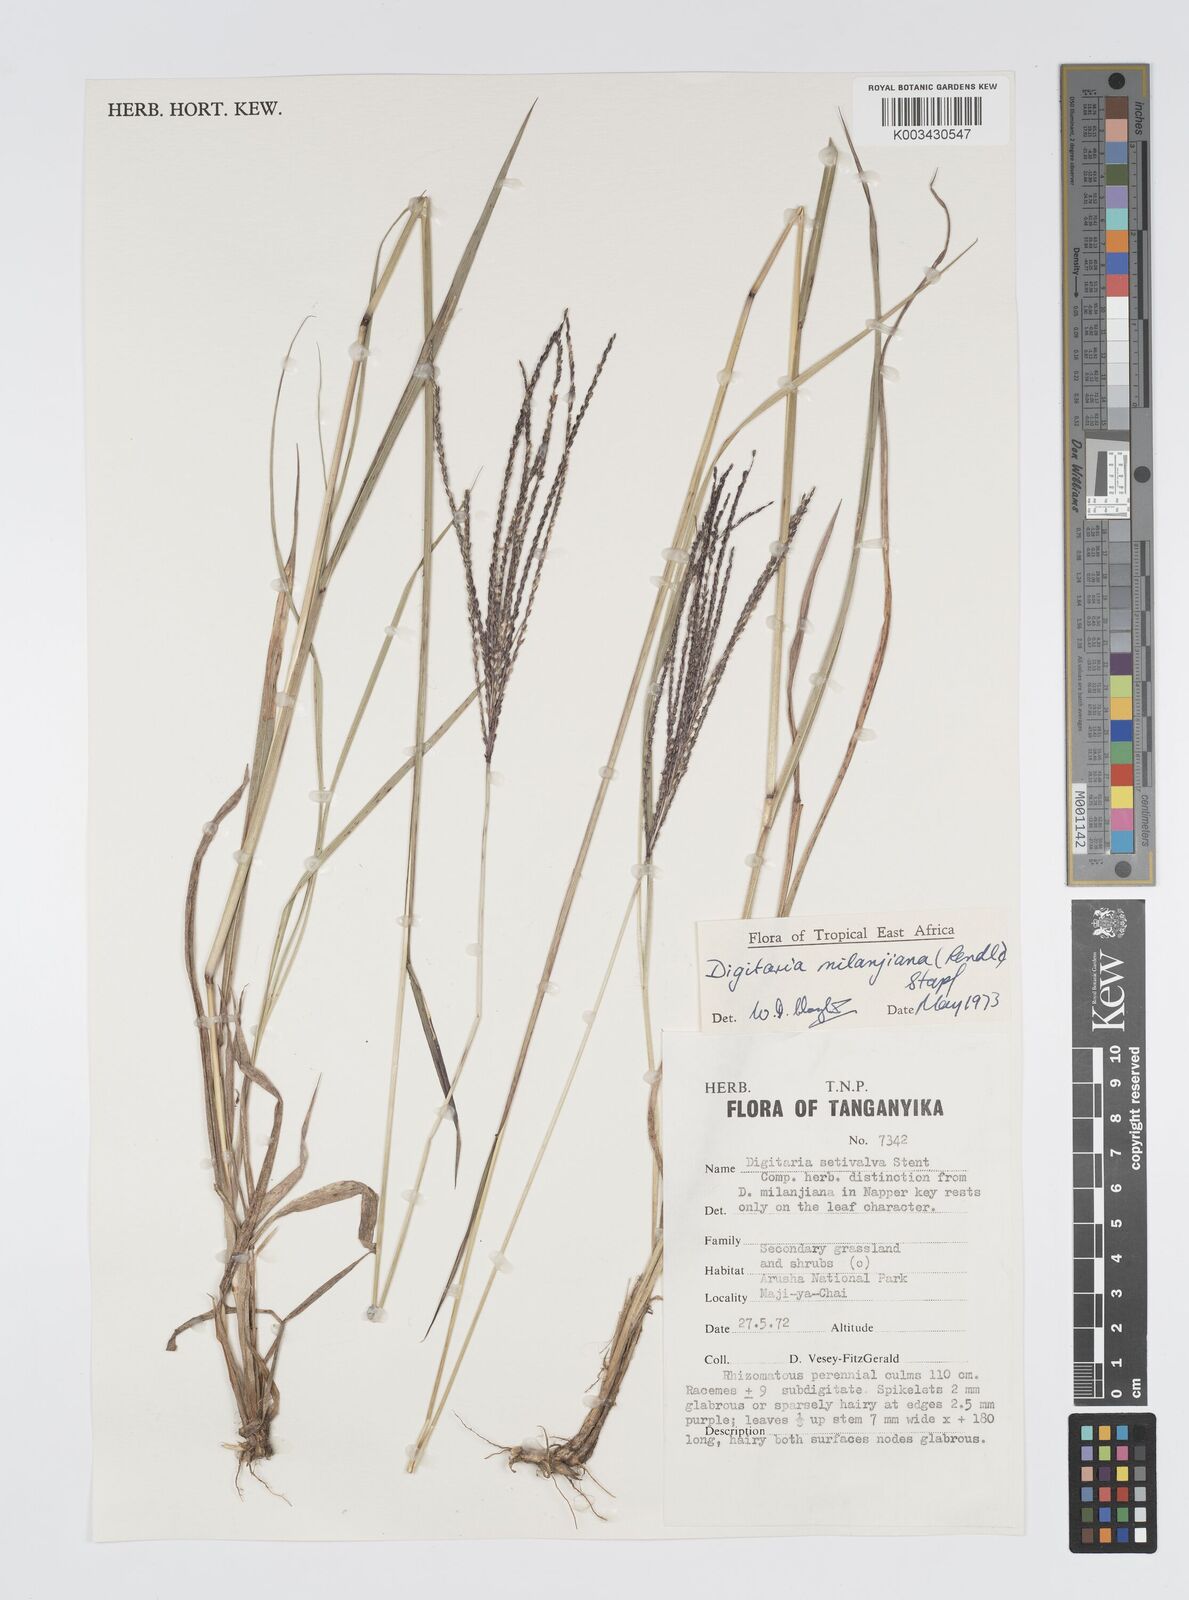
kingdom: Plantae
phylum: Tracheophyta
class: Liliopsida
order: Poales
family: Poaceae
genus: Digitaria
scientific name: Digitaria milanjiana
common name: Madagascar crabgrass
